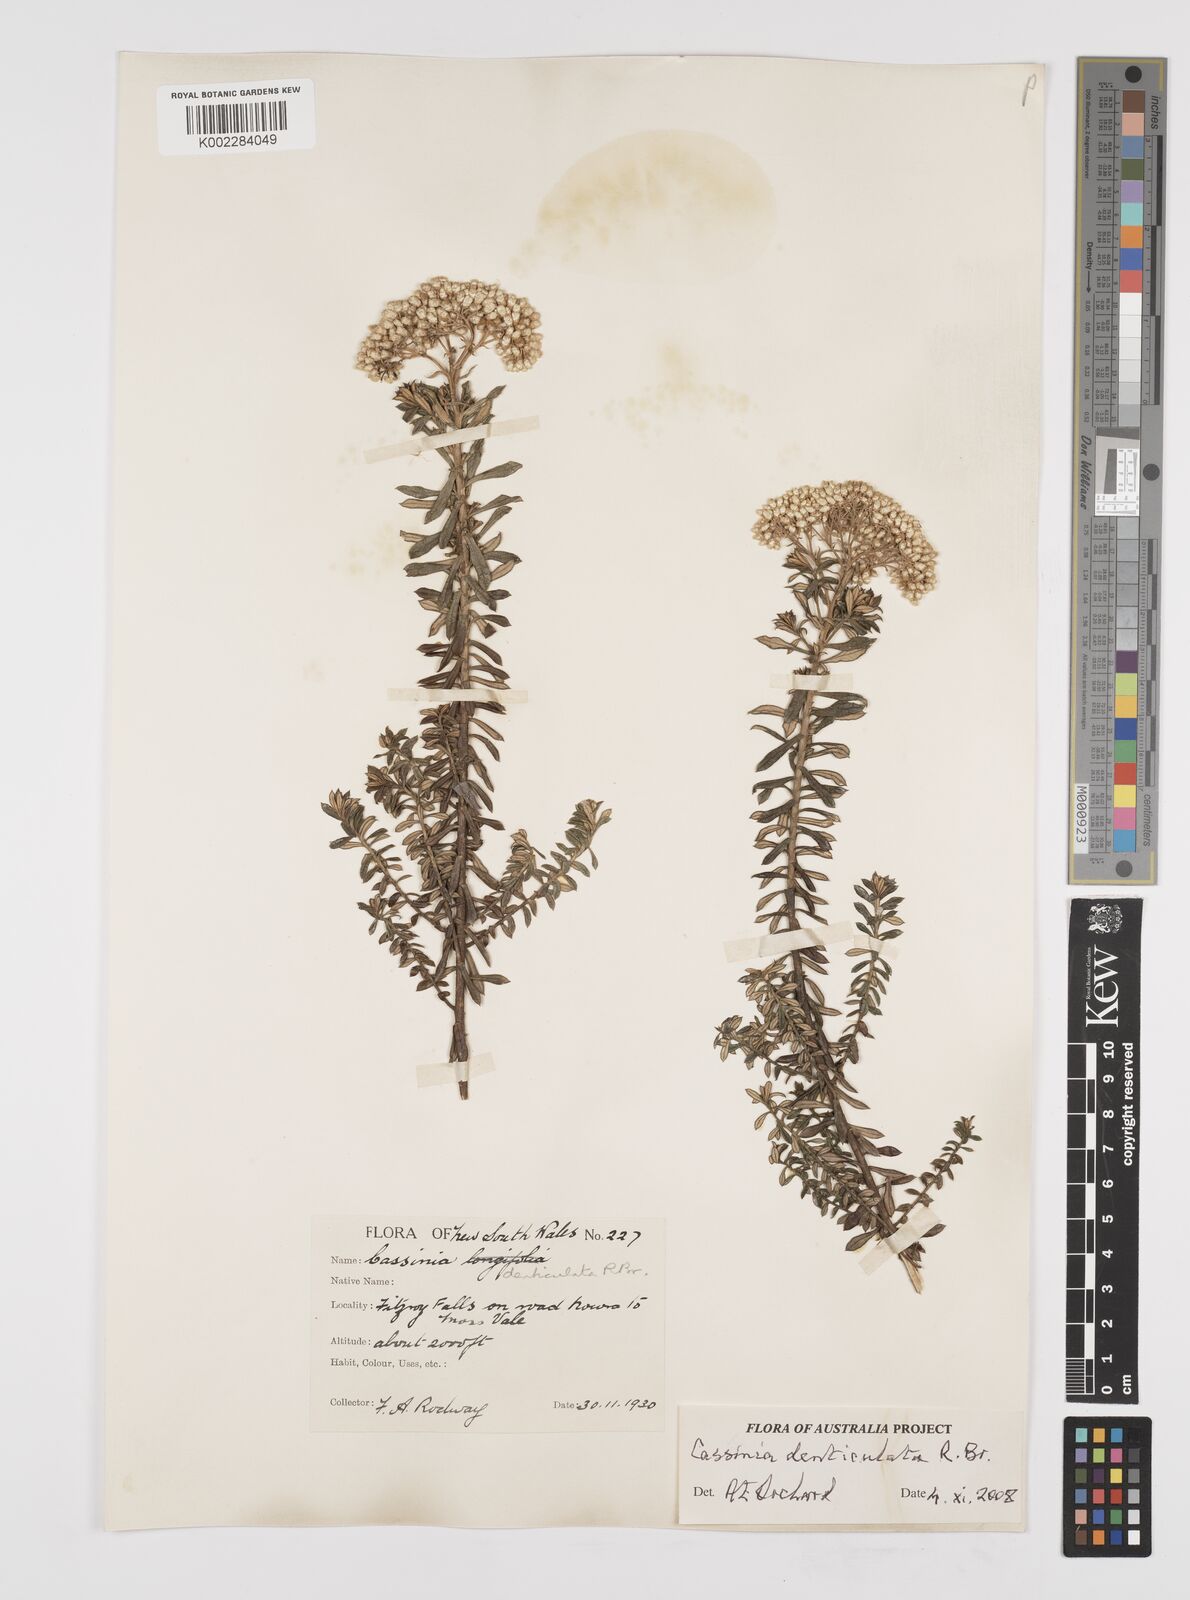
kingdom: Plantae
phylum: Tracheophyta
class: Magnoliopsida
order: Asterales
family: Asteraceae
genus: Cassinia
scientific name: Cassinia denticulata
